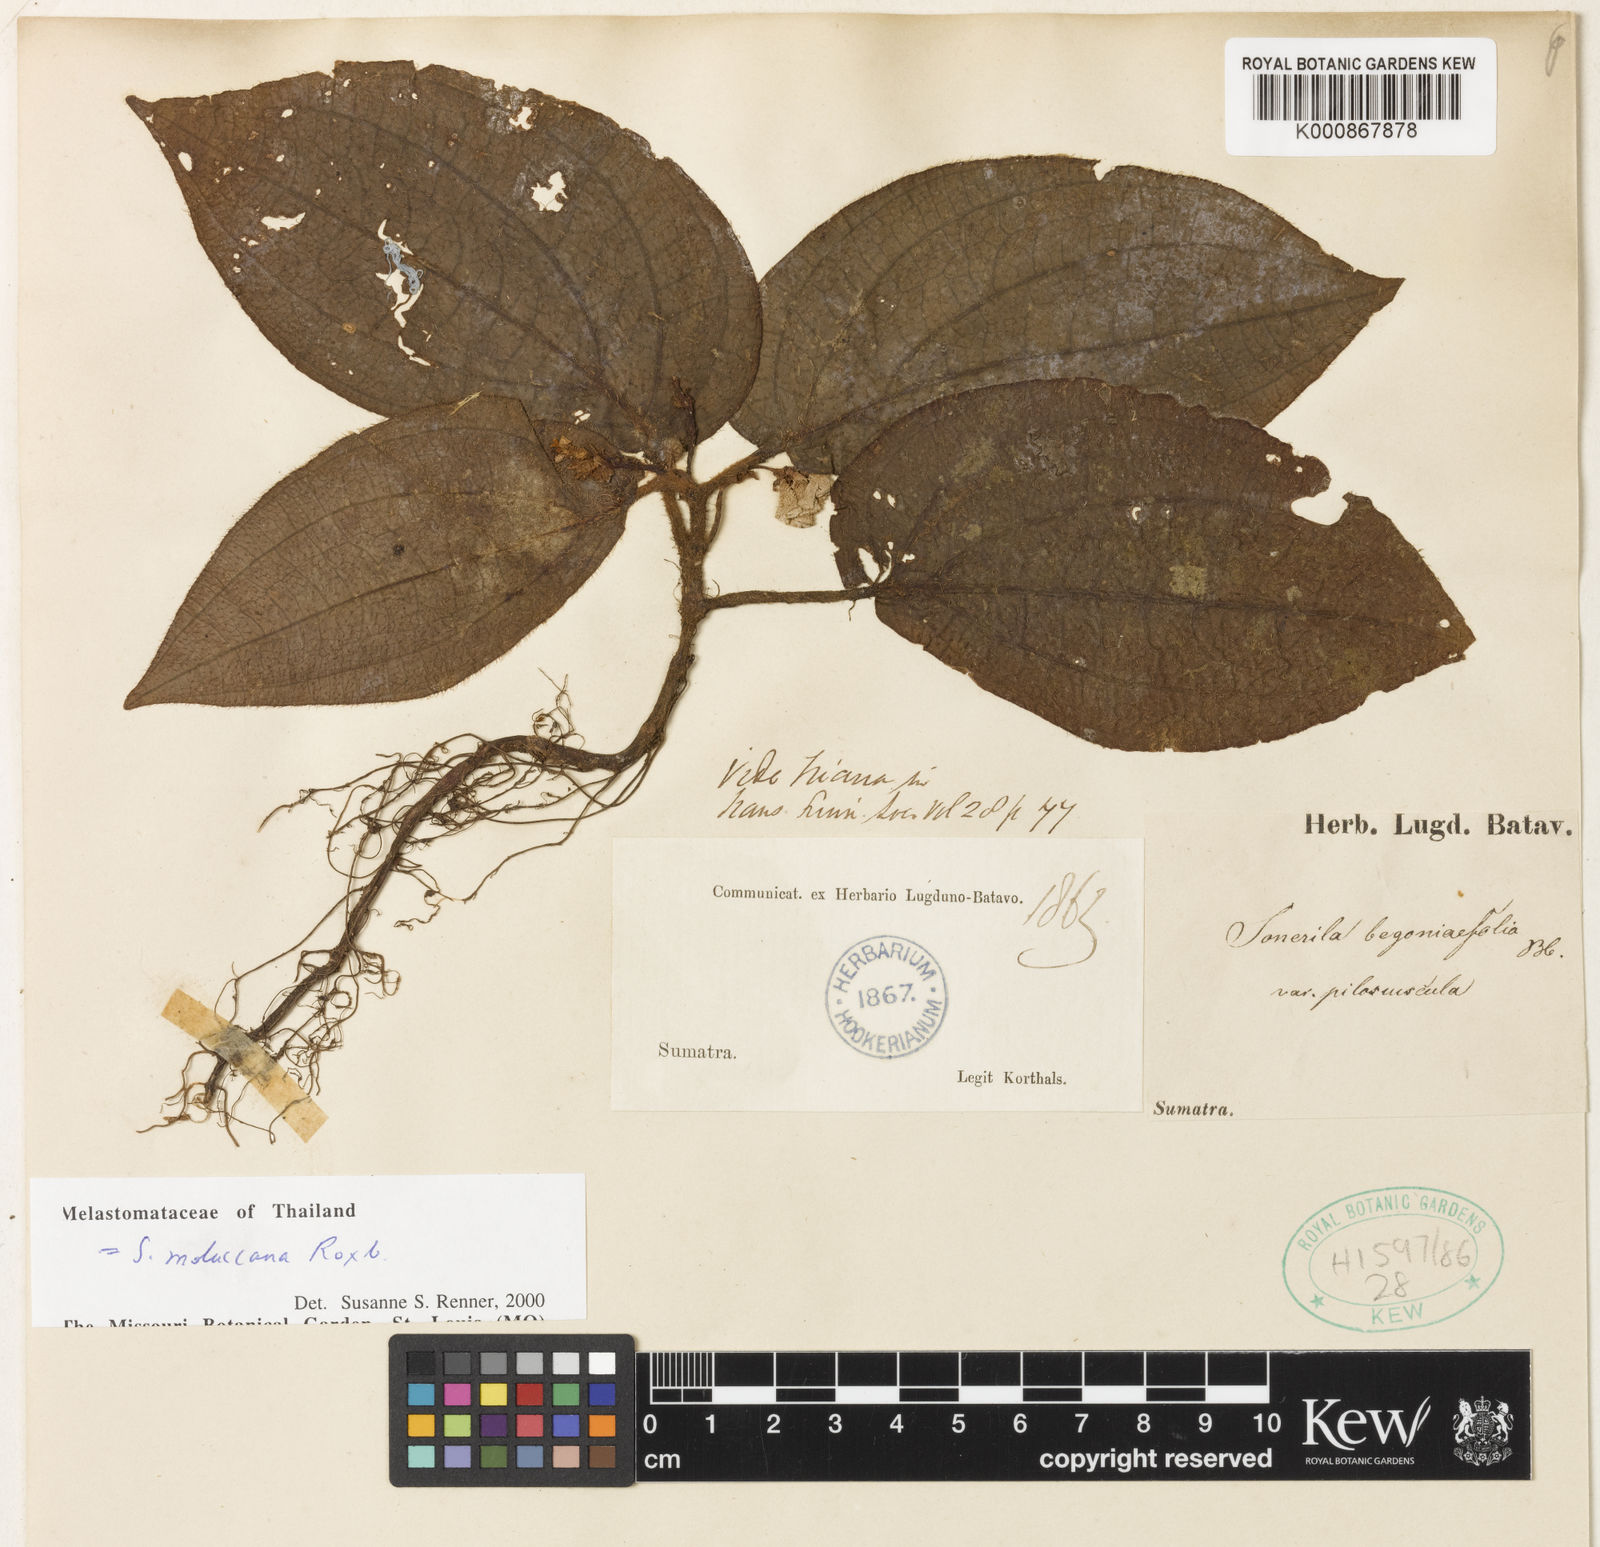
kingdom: Plantae
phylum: Tracheophyta
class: Magnoliopsida
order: Myrtales
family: Melastomataceae
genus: Sonerila
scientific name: Sonerila moluccana
